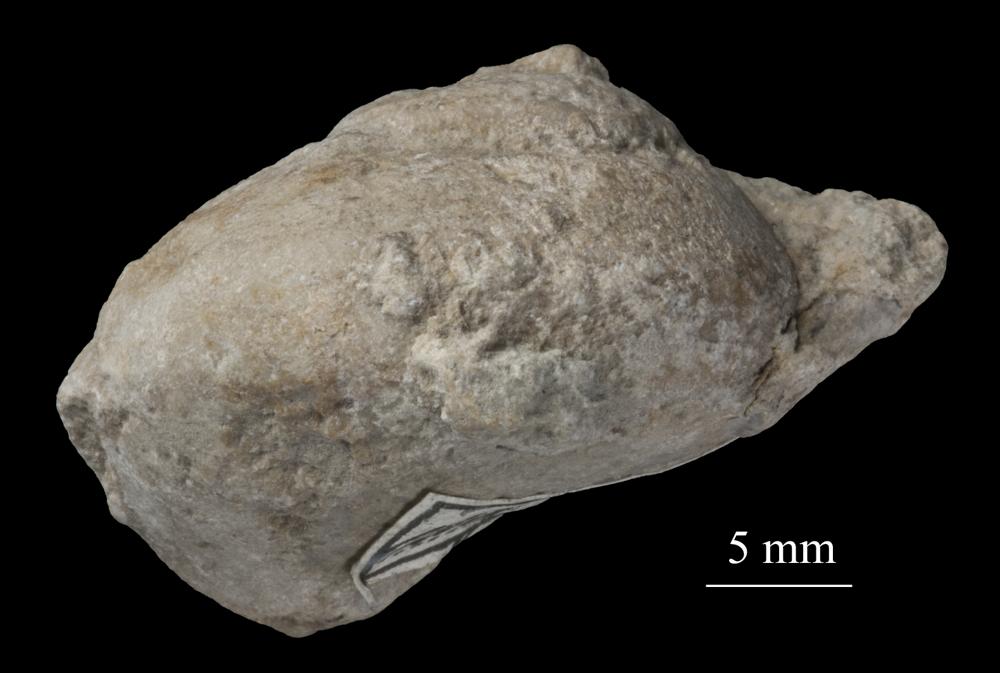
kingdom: Animalia
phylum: Mollusca
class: Gastropoda
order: Pleurotomariida
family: Pleurotomariidae
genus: Pleurotomaria
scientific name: Pleurotomaria
